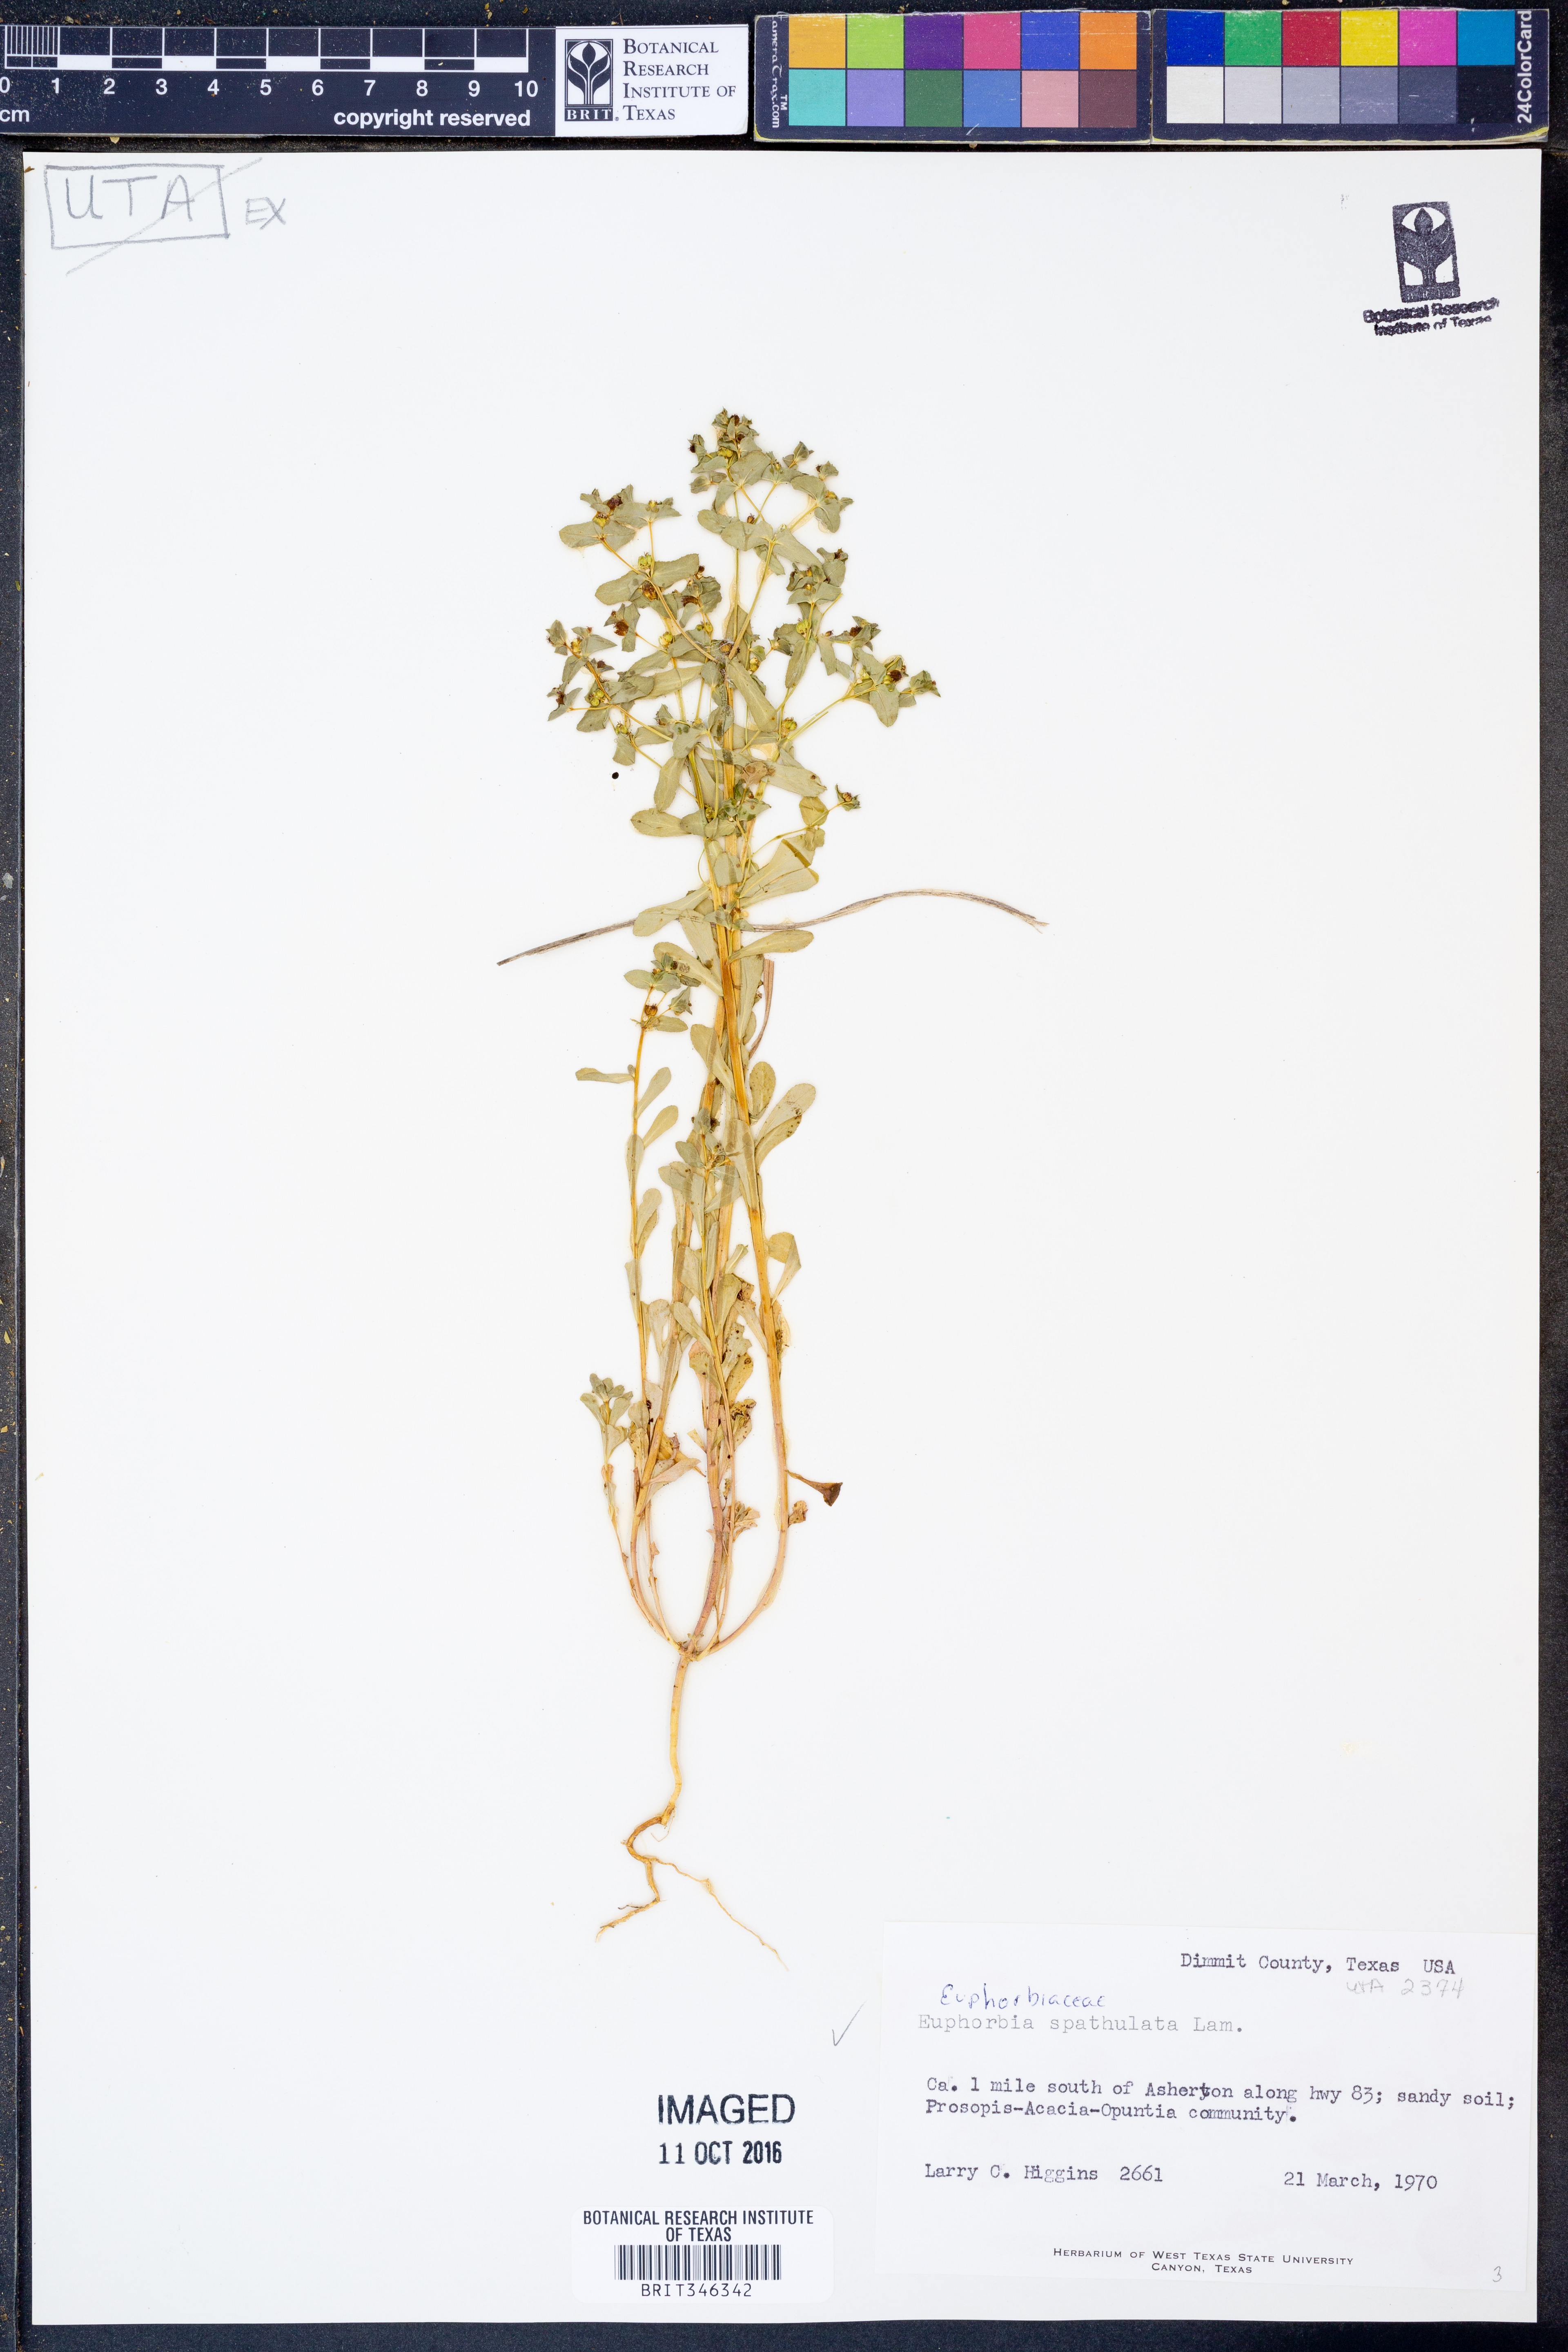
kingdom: Plantae
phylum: Tracheophyta
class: Magnoliopsida
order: Malpighiales
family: Euphorbiaceae
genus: Euphorbia
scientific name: Euphorbia spathulata
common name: Blunt spurge
